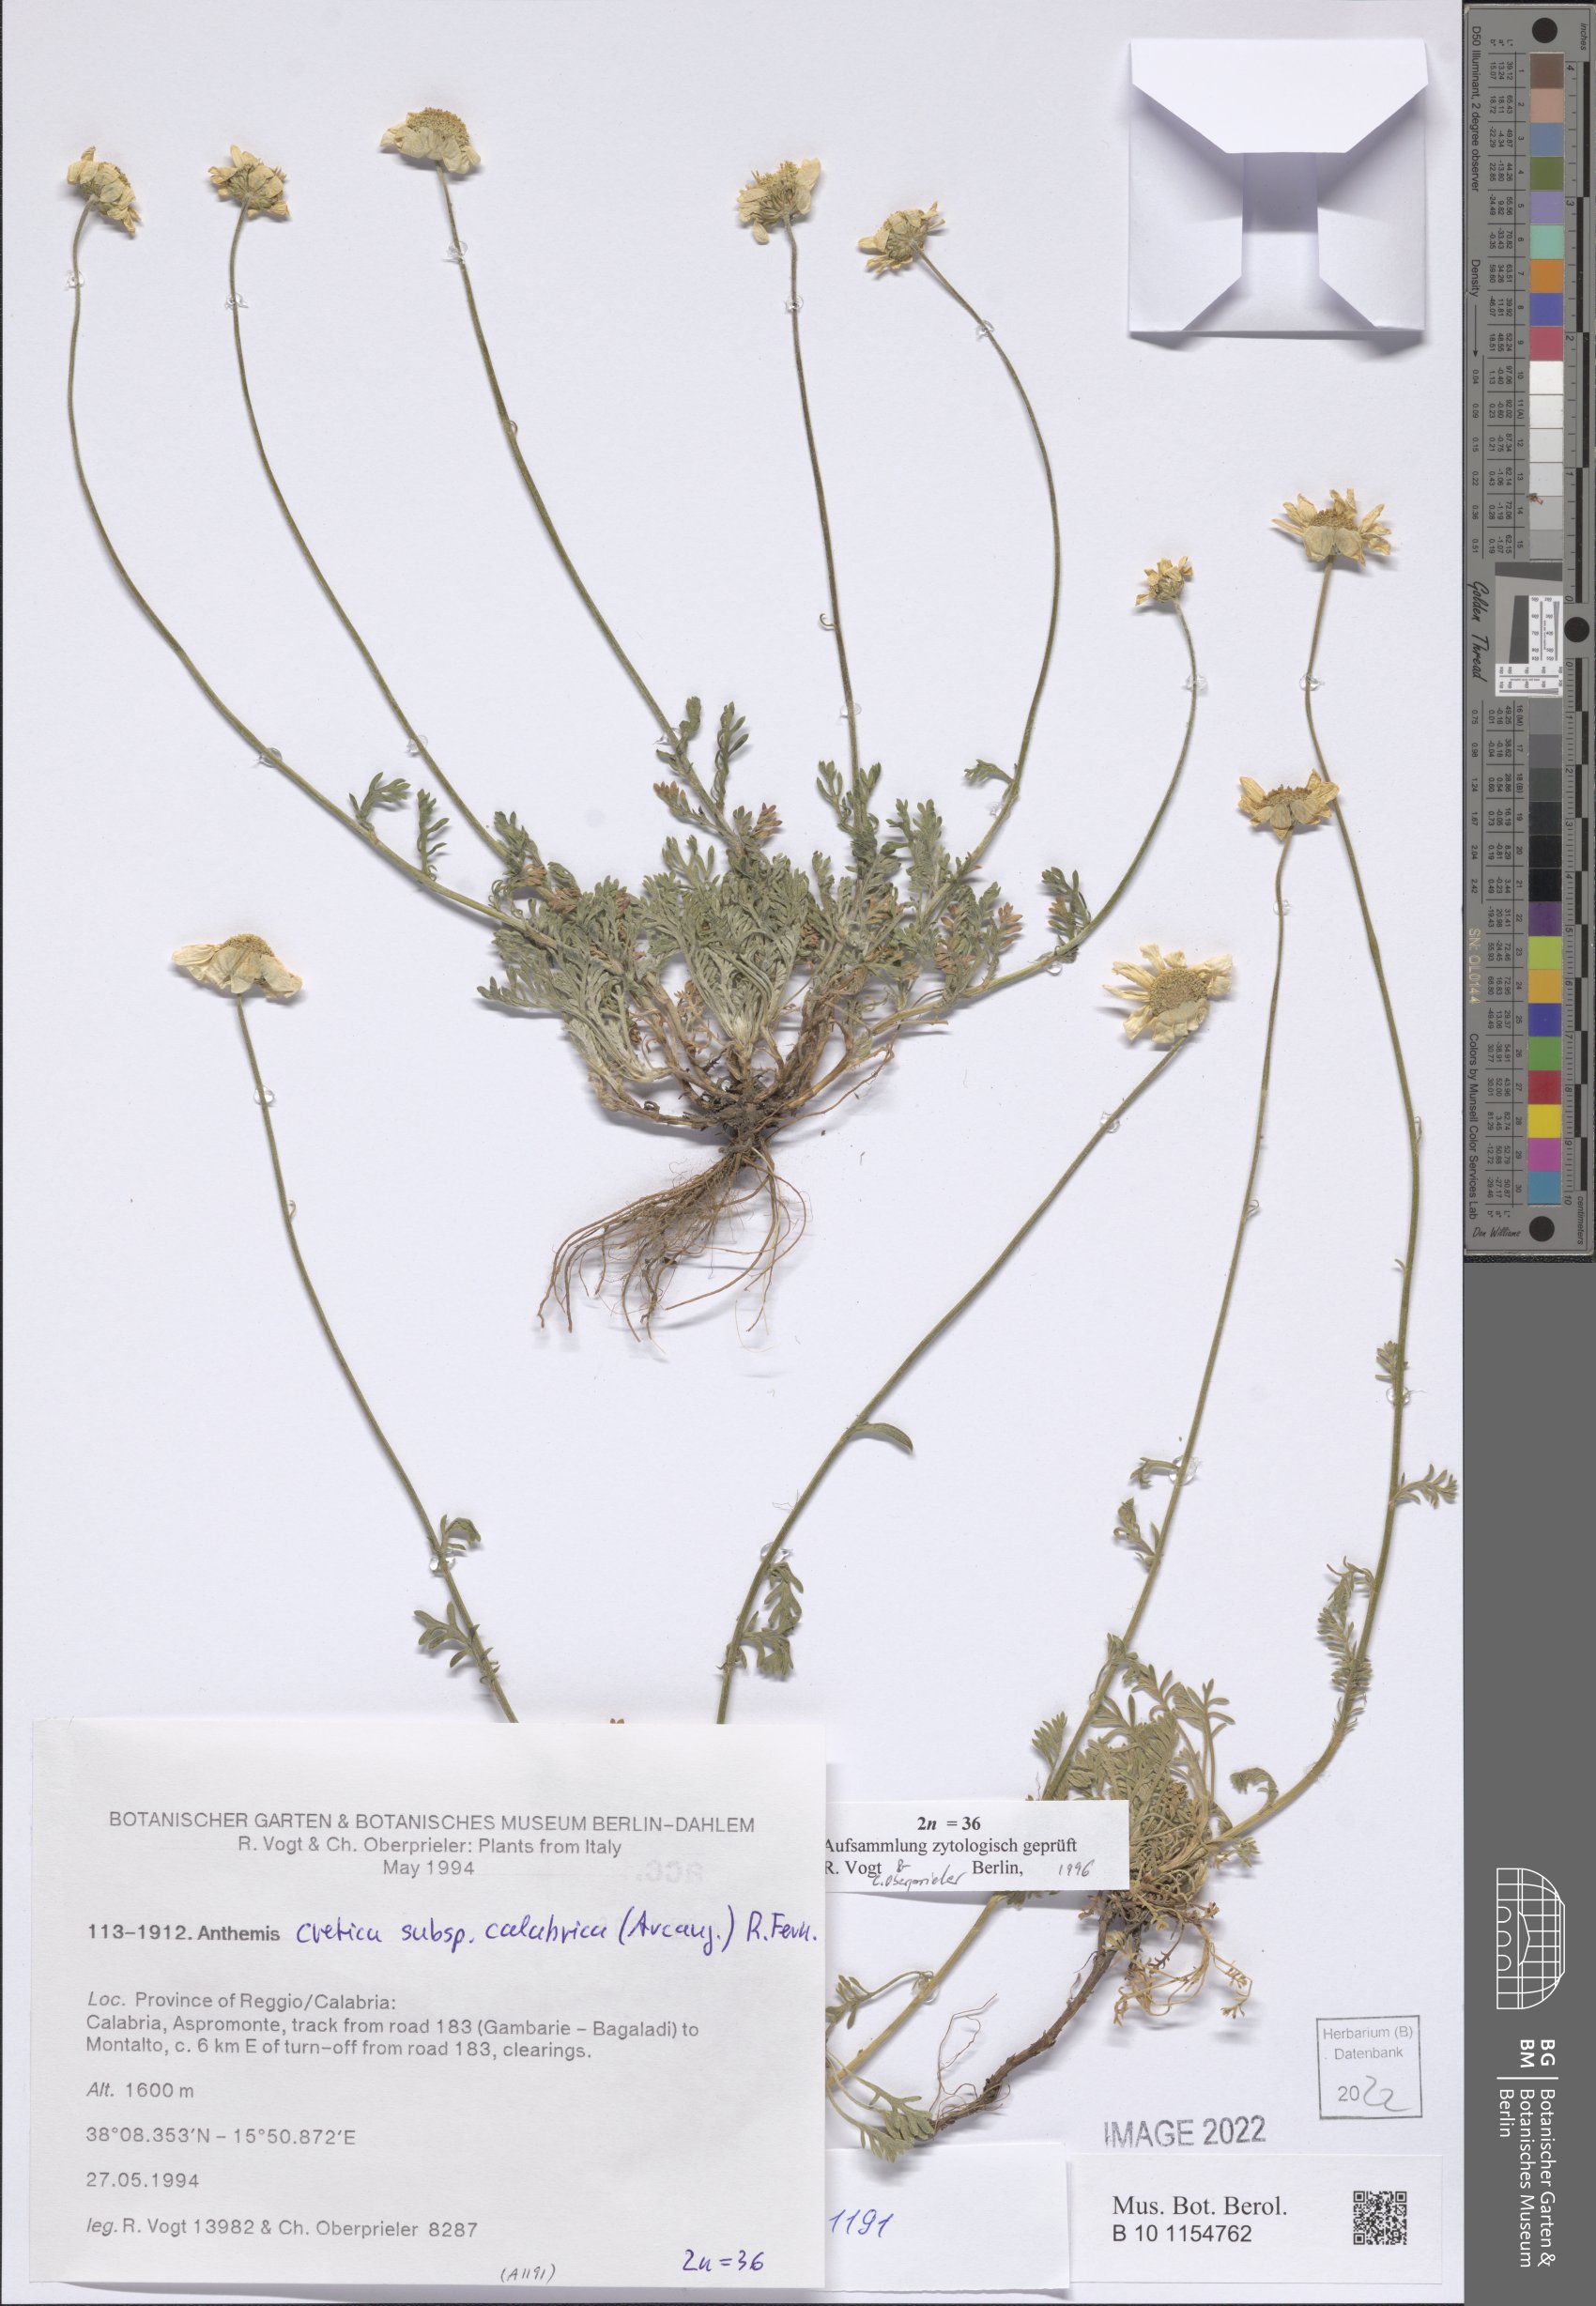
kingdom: Plantae
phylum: Tracheophyta
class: Magnoliopsida
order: Asterales
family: Asteraceae
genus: Anthemis
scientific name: Anthemis cretica
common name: Mountain dog-daisy
